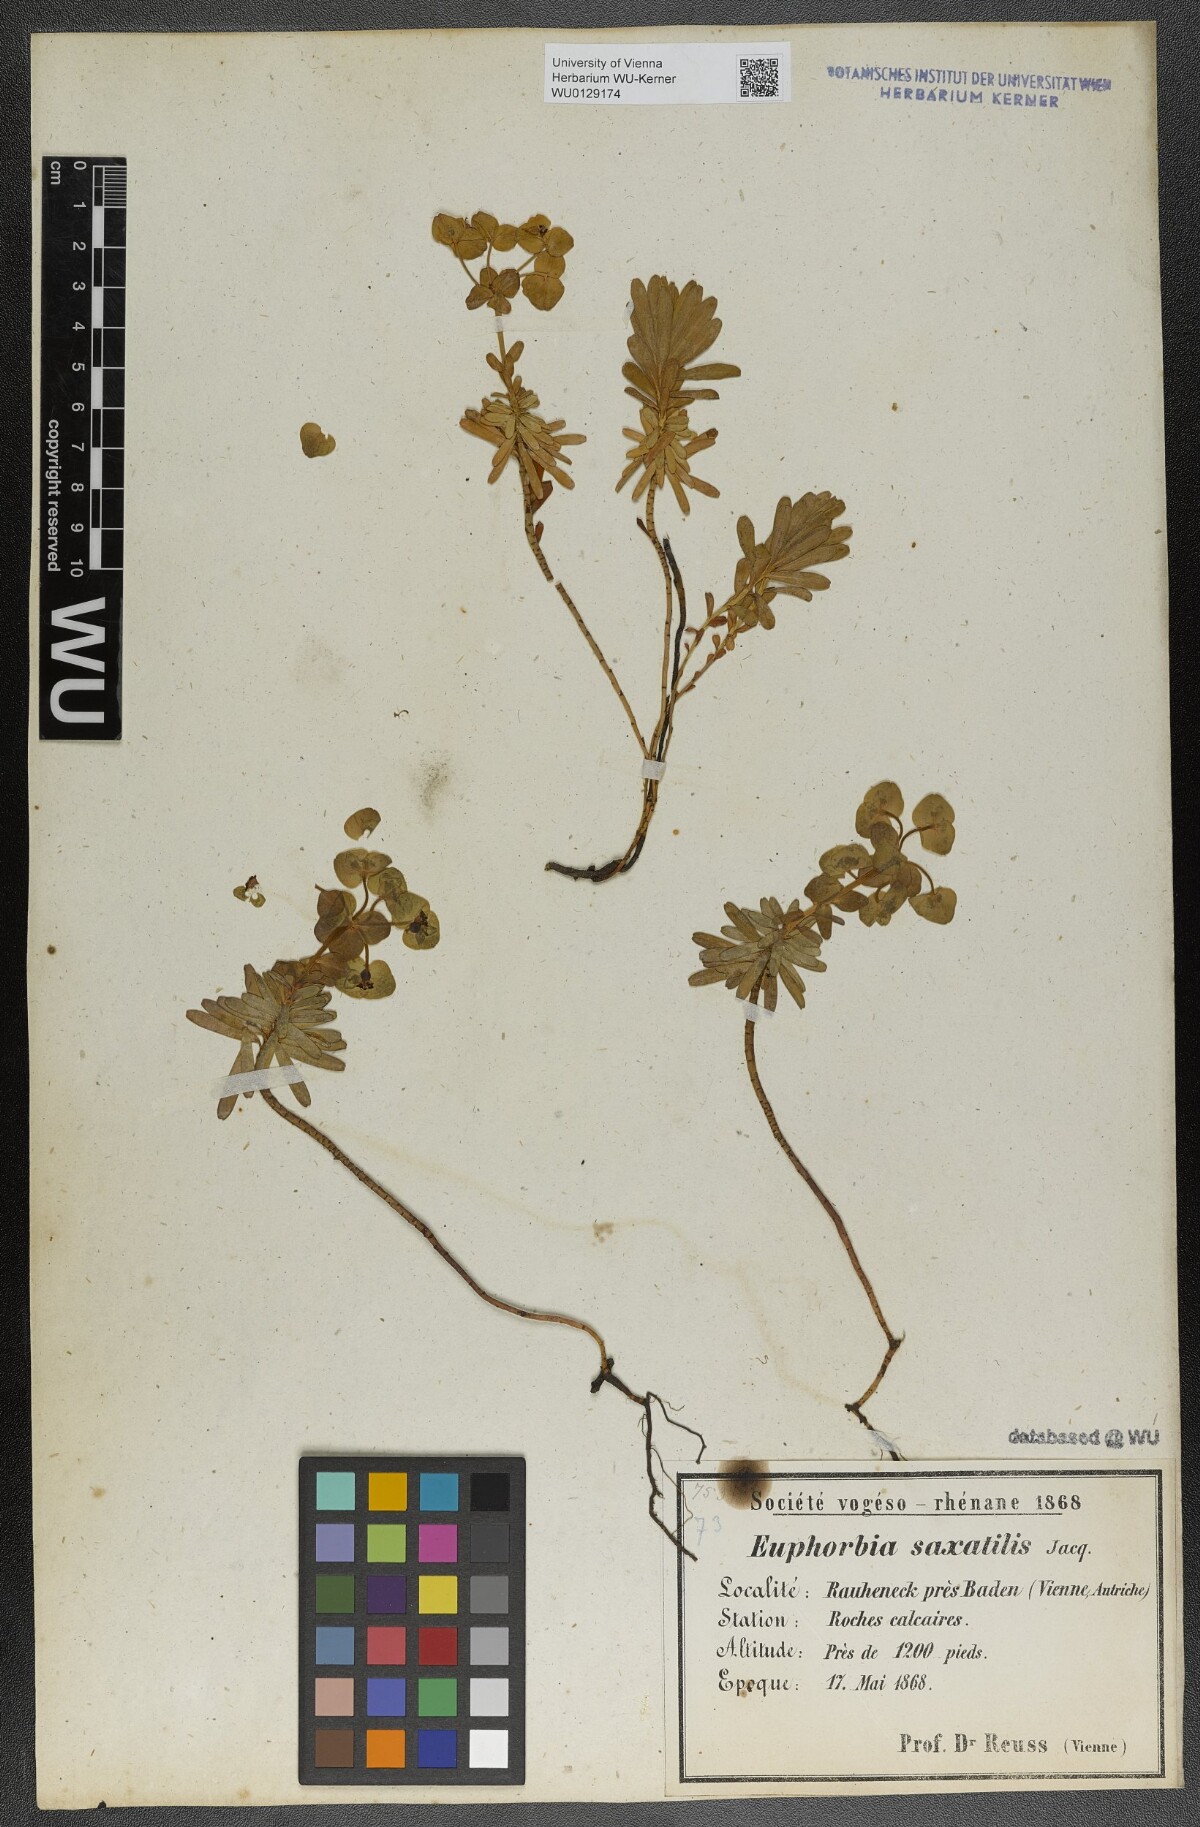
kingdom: Plantae
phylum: Tracheophyta
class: Magnoliopsida
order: Malpighiales
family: Euphorbiaceae
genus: Euphorbia
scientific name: Euphorbia saxatilis
